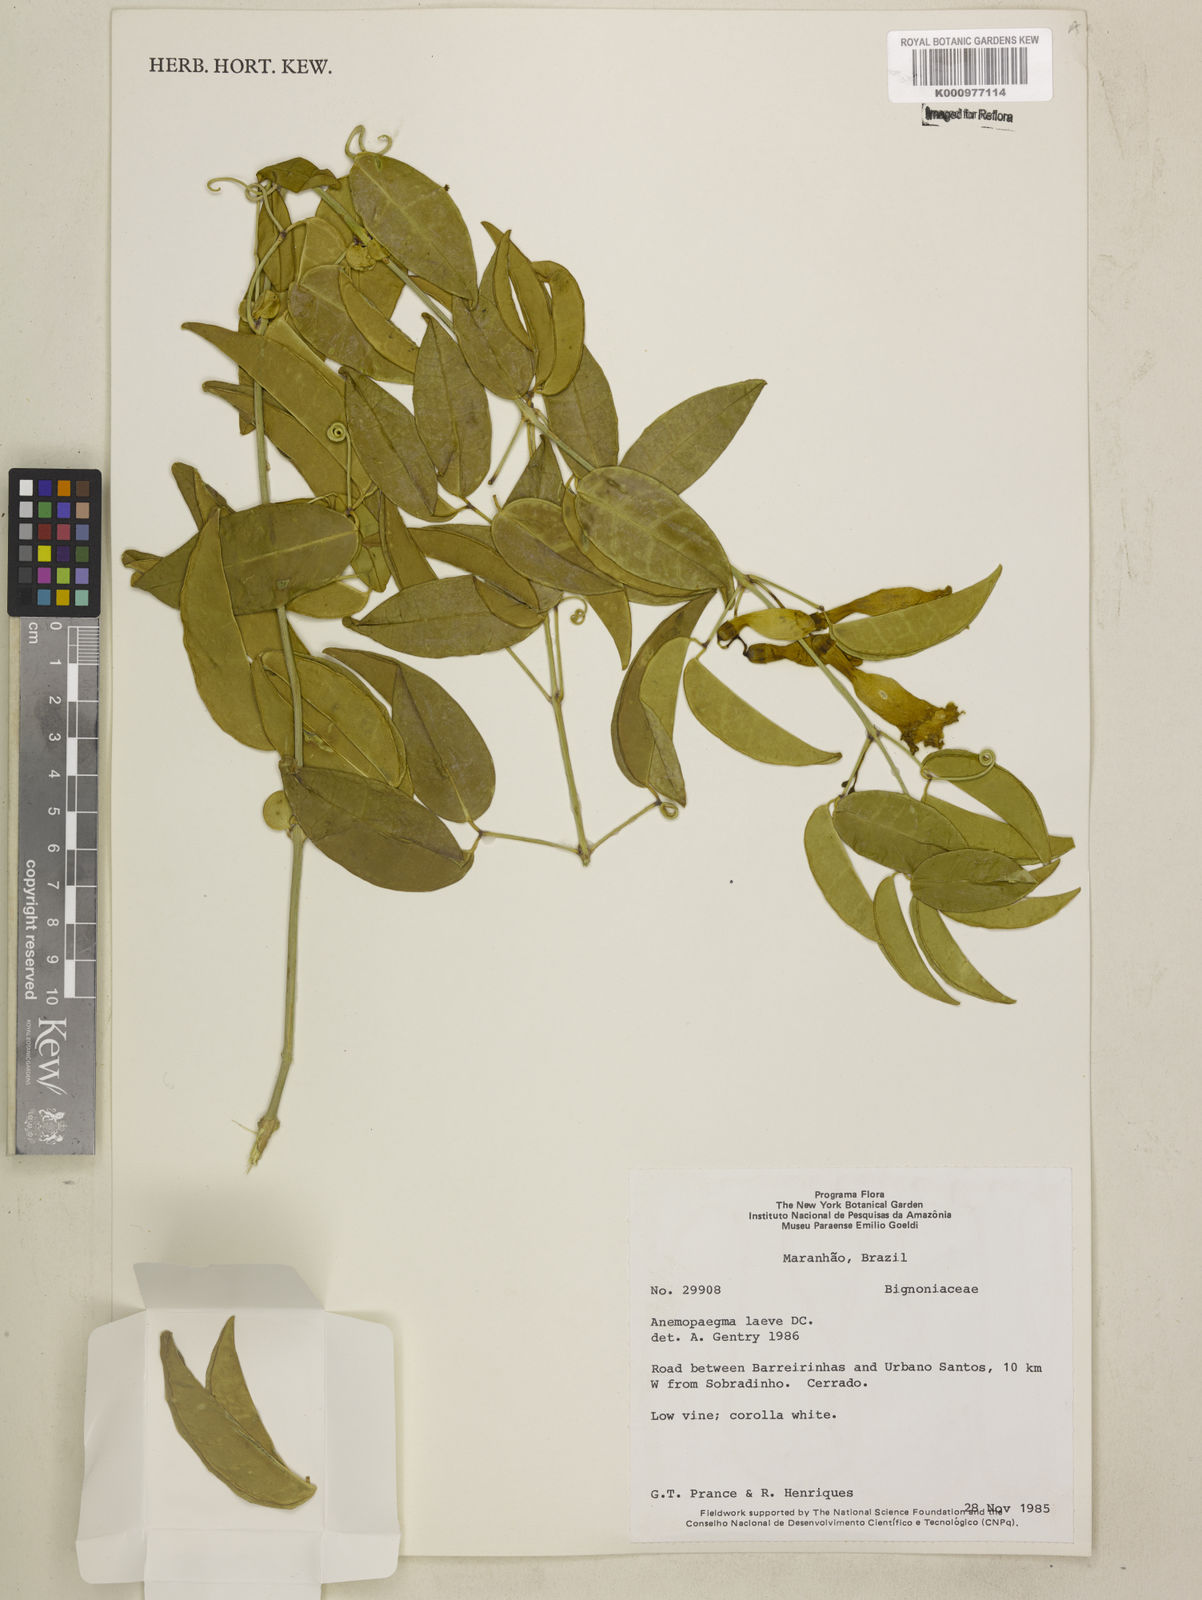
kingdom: Plantae
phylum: Tracheophyta
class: Magnoliopsida
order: Lamiales
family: Bignoniaceae
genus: Anemopaegma
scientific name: Anemopaegma laeve
